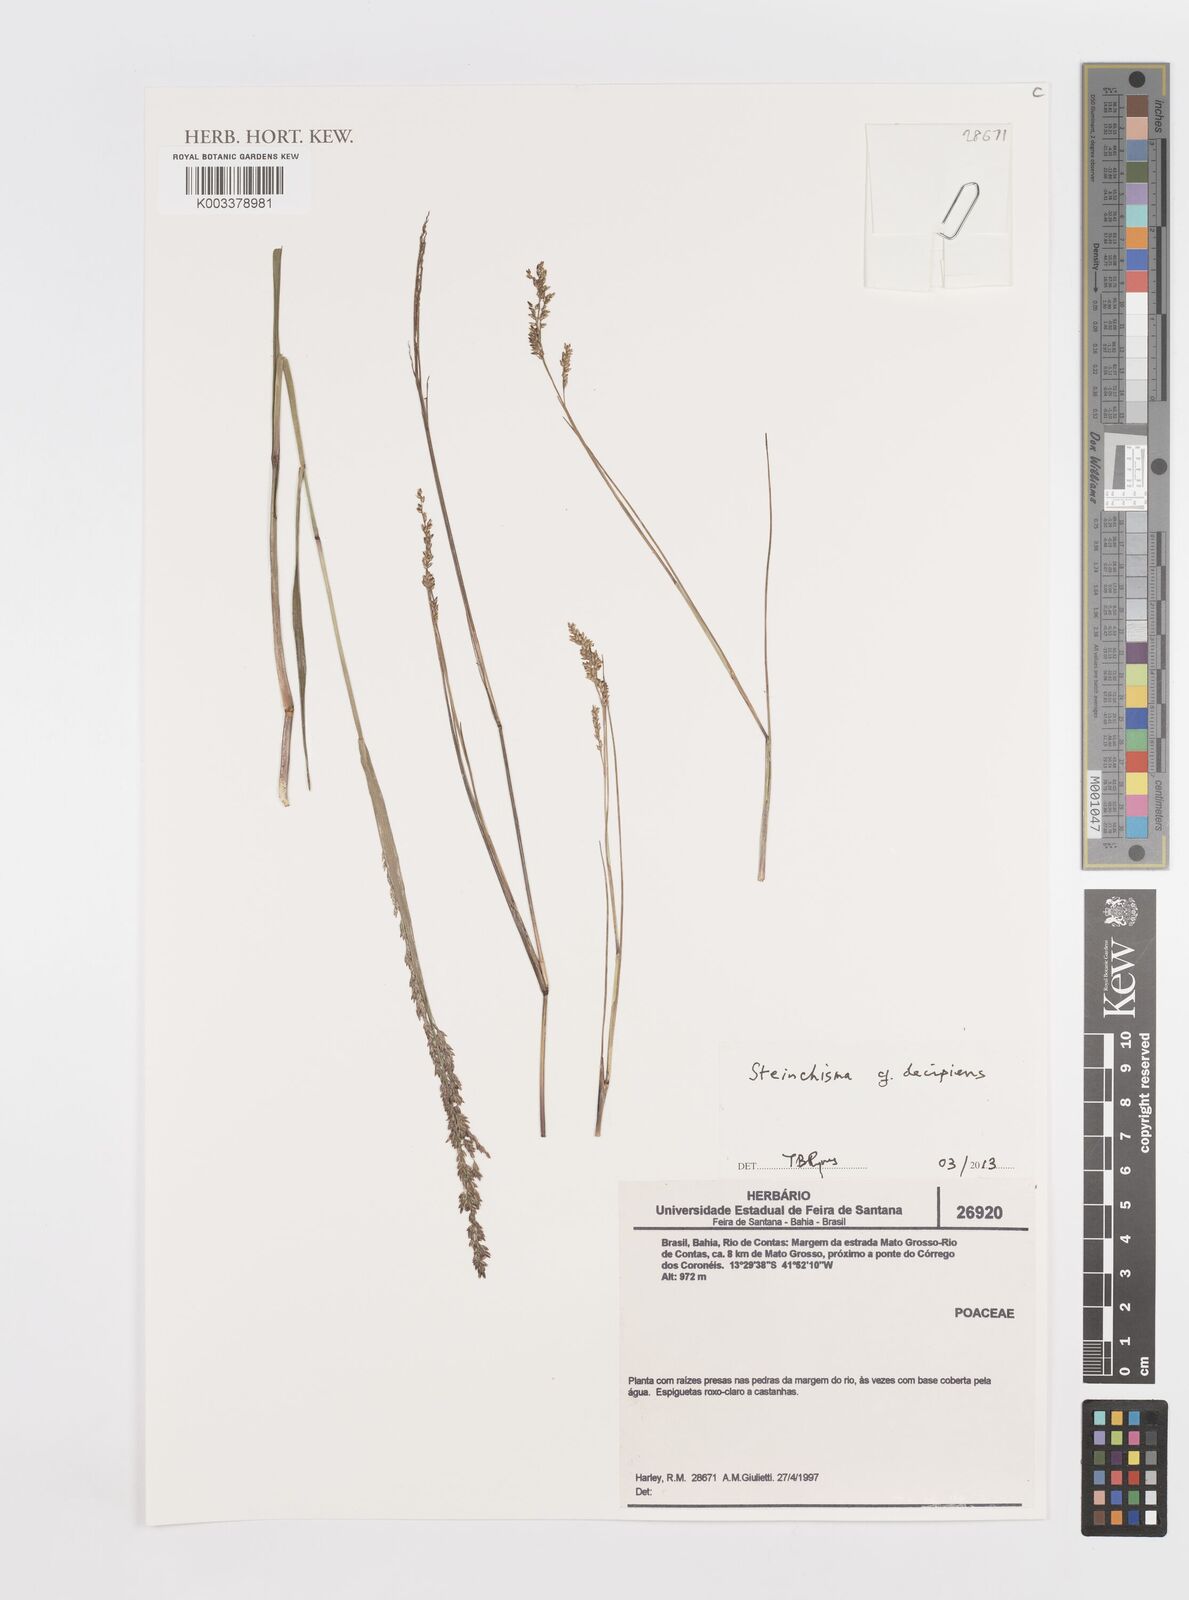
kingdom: Plantae
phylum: Tracheophyta
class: Liliopsida
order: Poales
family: Poaceae
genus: Steinchisma
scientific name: Steinchisma decipiens
